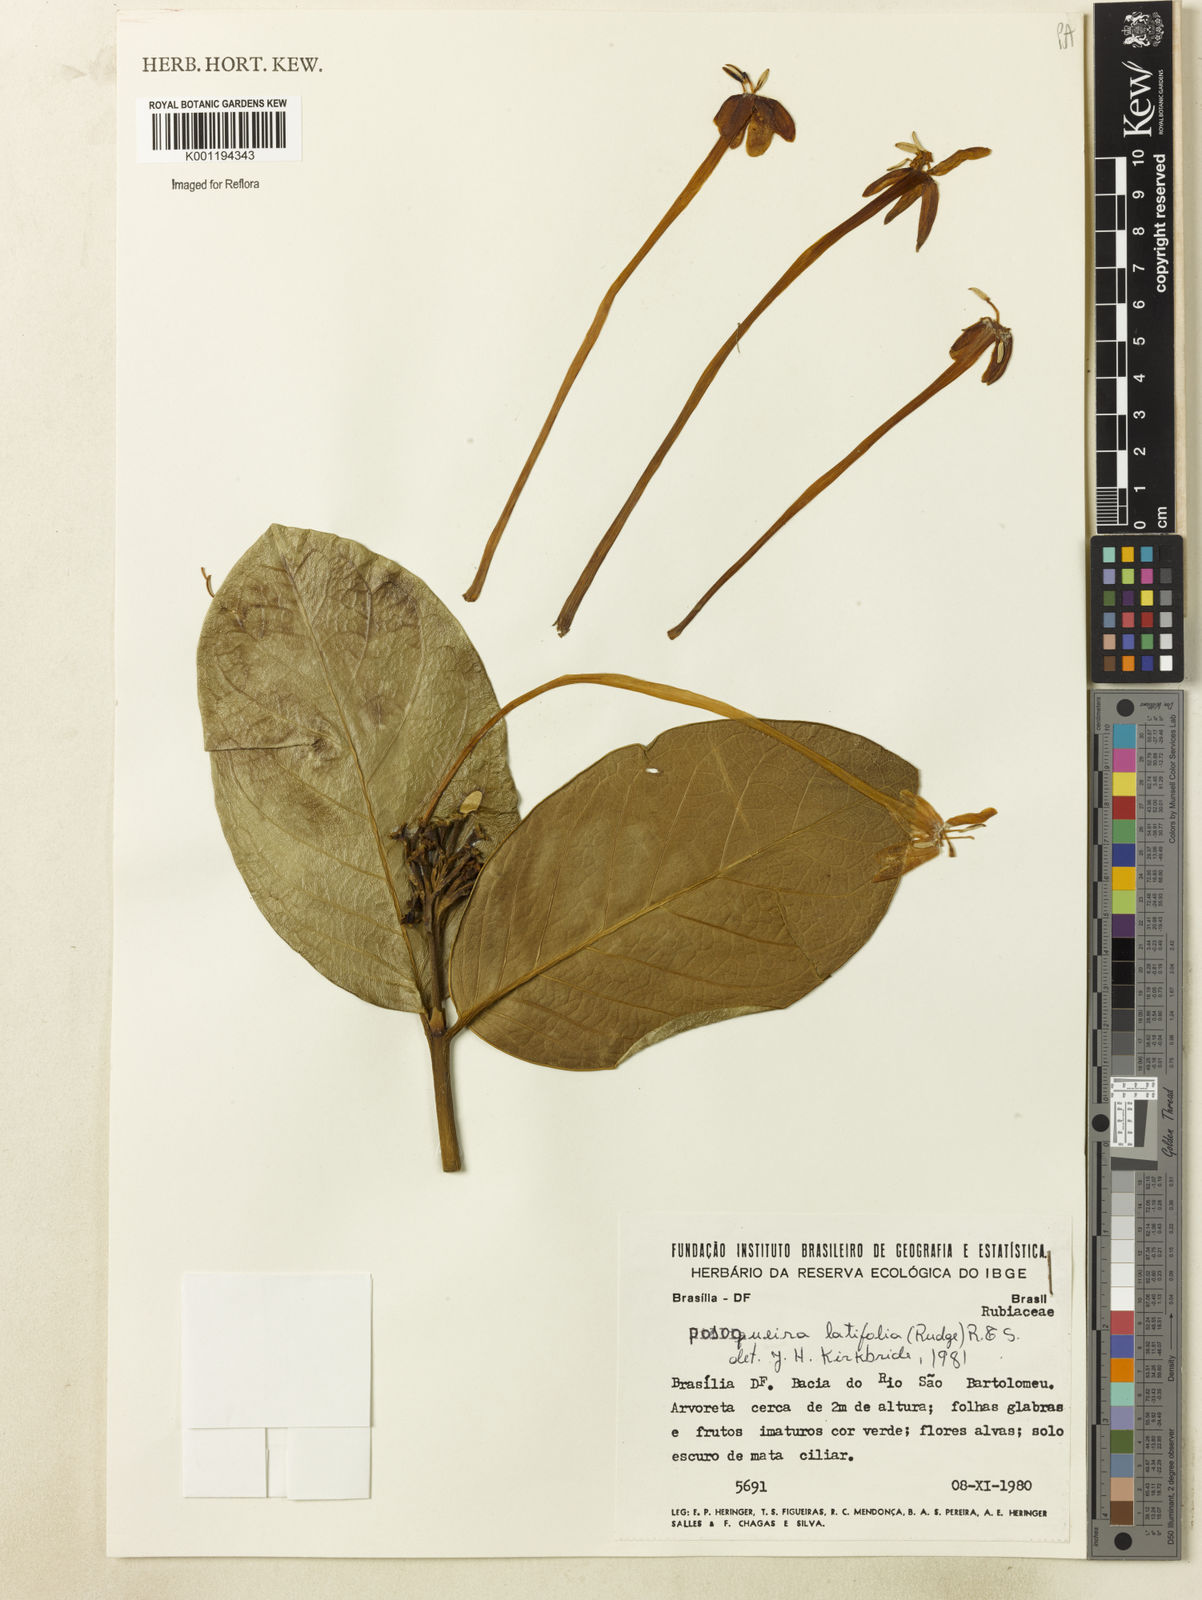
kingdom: Plantae
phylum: Tracheophyta
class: Magnoliopsida
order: Gentianales
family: Rubiaceae
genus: Posoqueria
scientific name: Posoqueria latifolia
